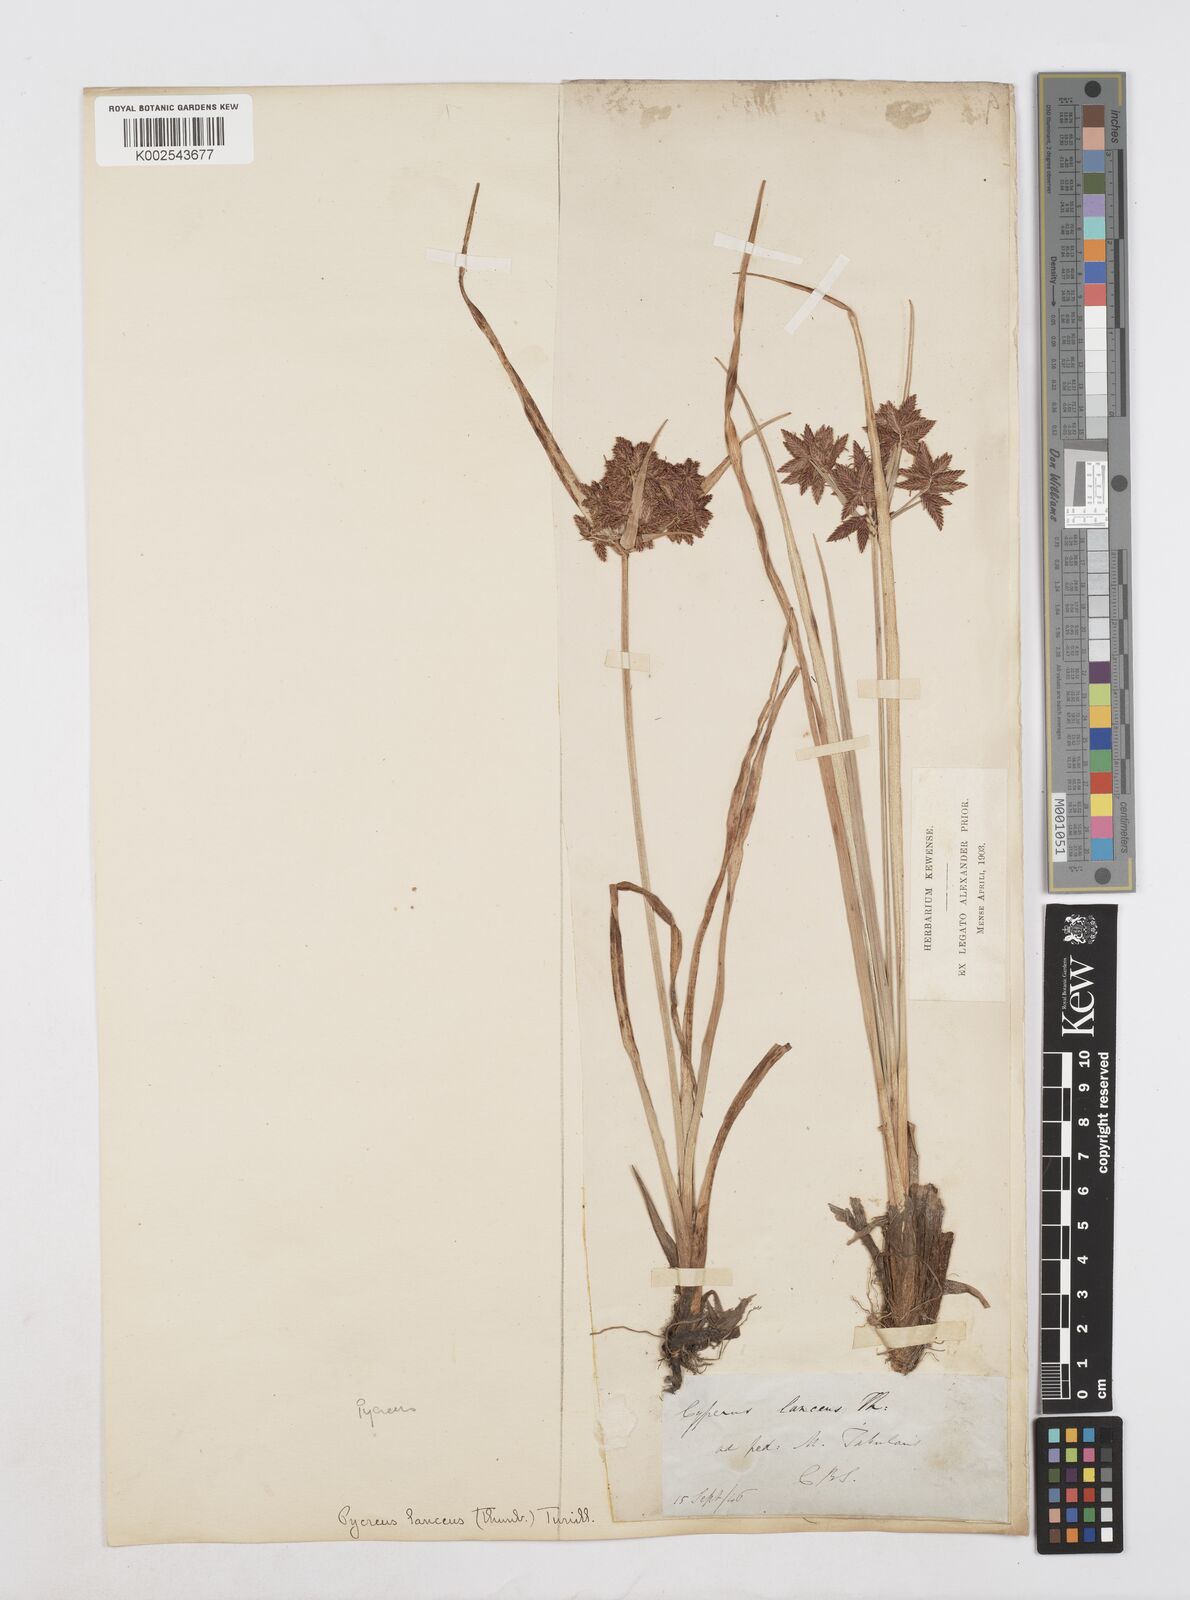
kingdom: Plantae
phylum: Tracheophyta
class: Liliopsida
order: Poales
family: Cyperaceae
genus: Cyperus
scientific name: Cyperus nitidus
